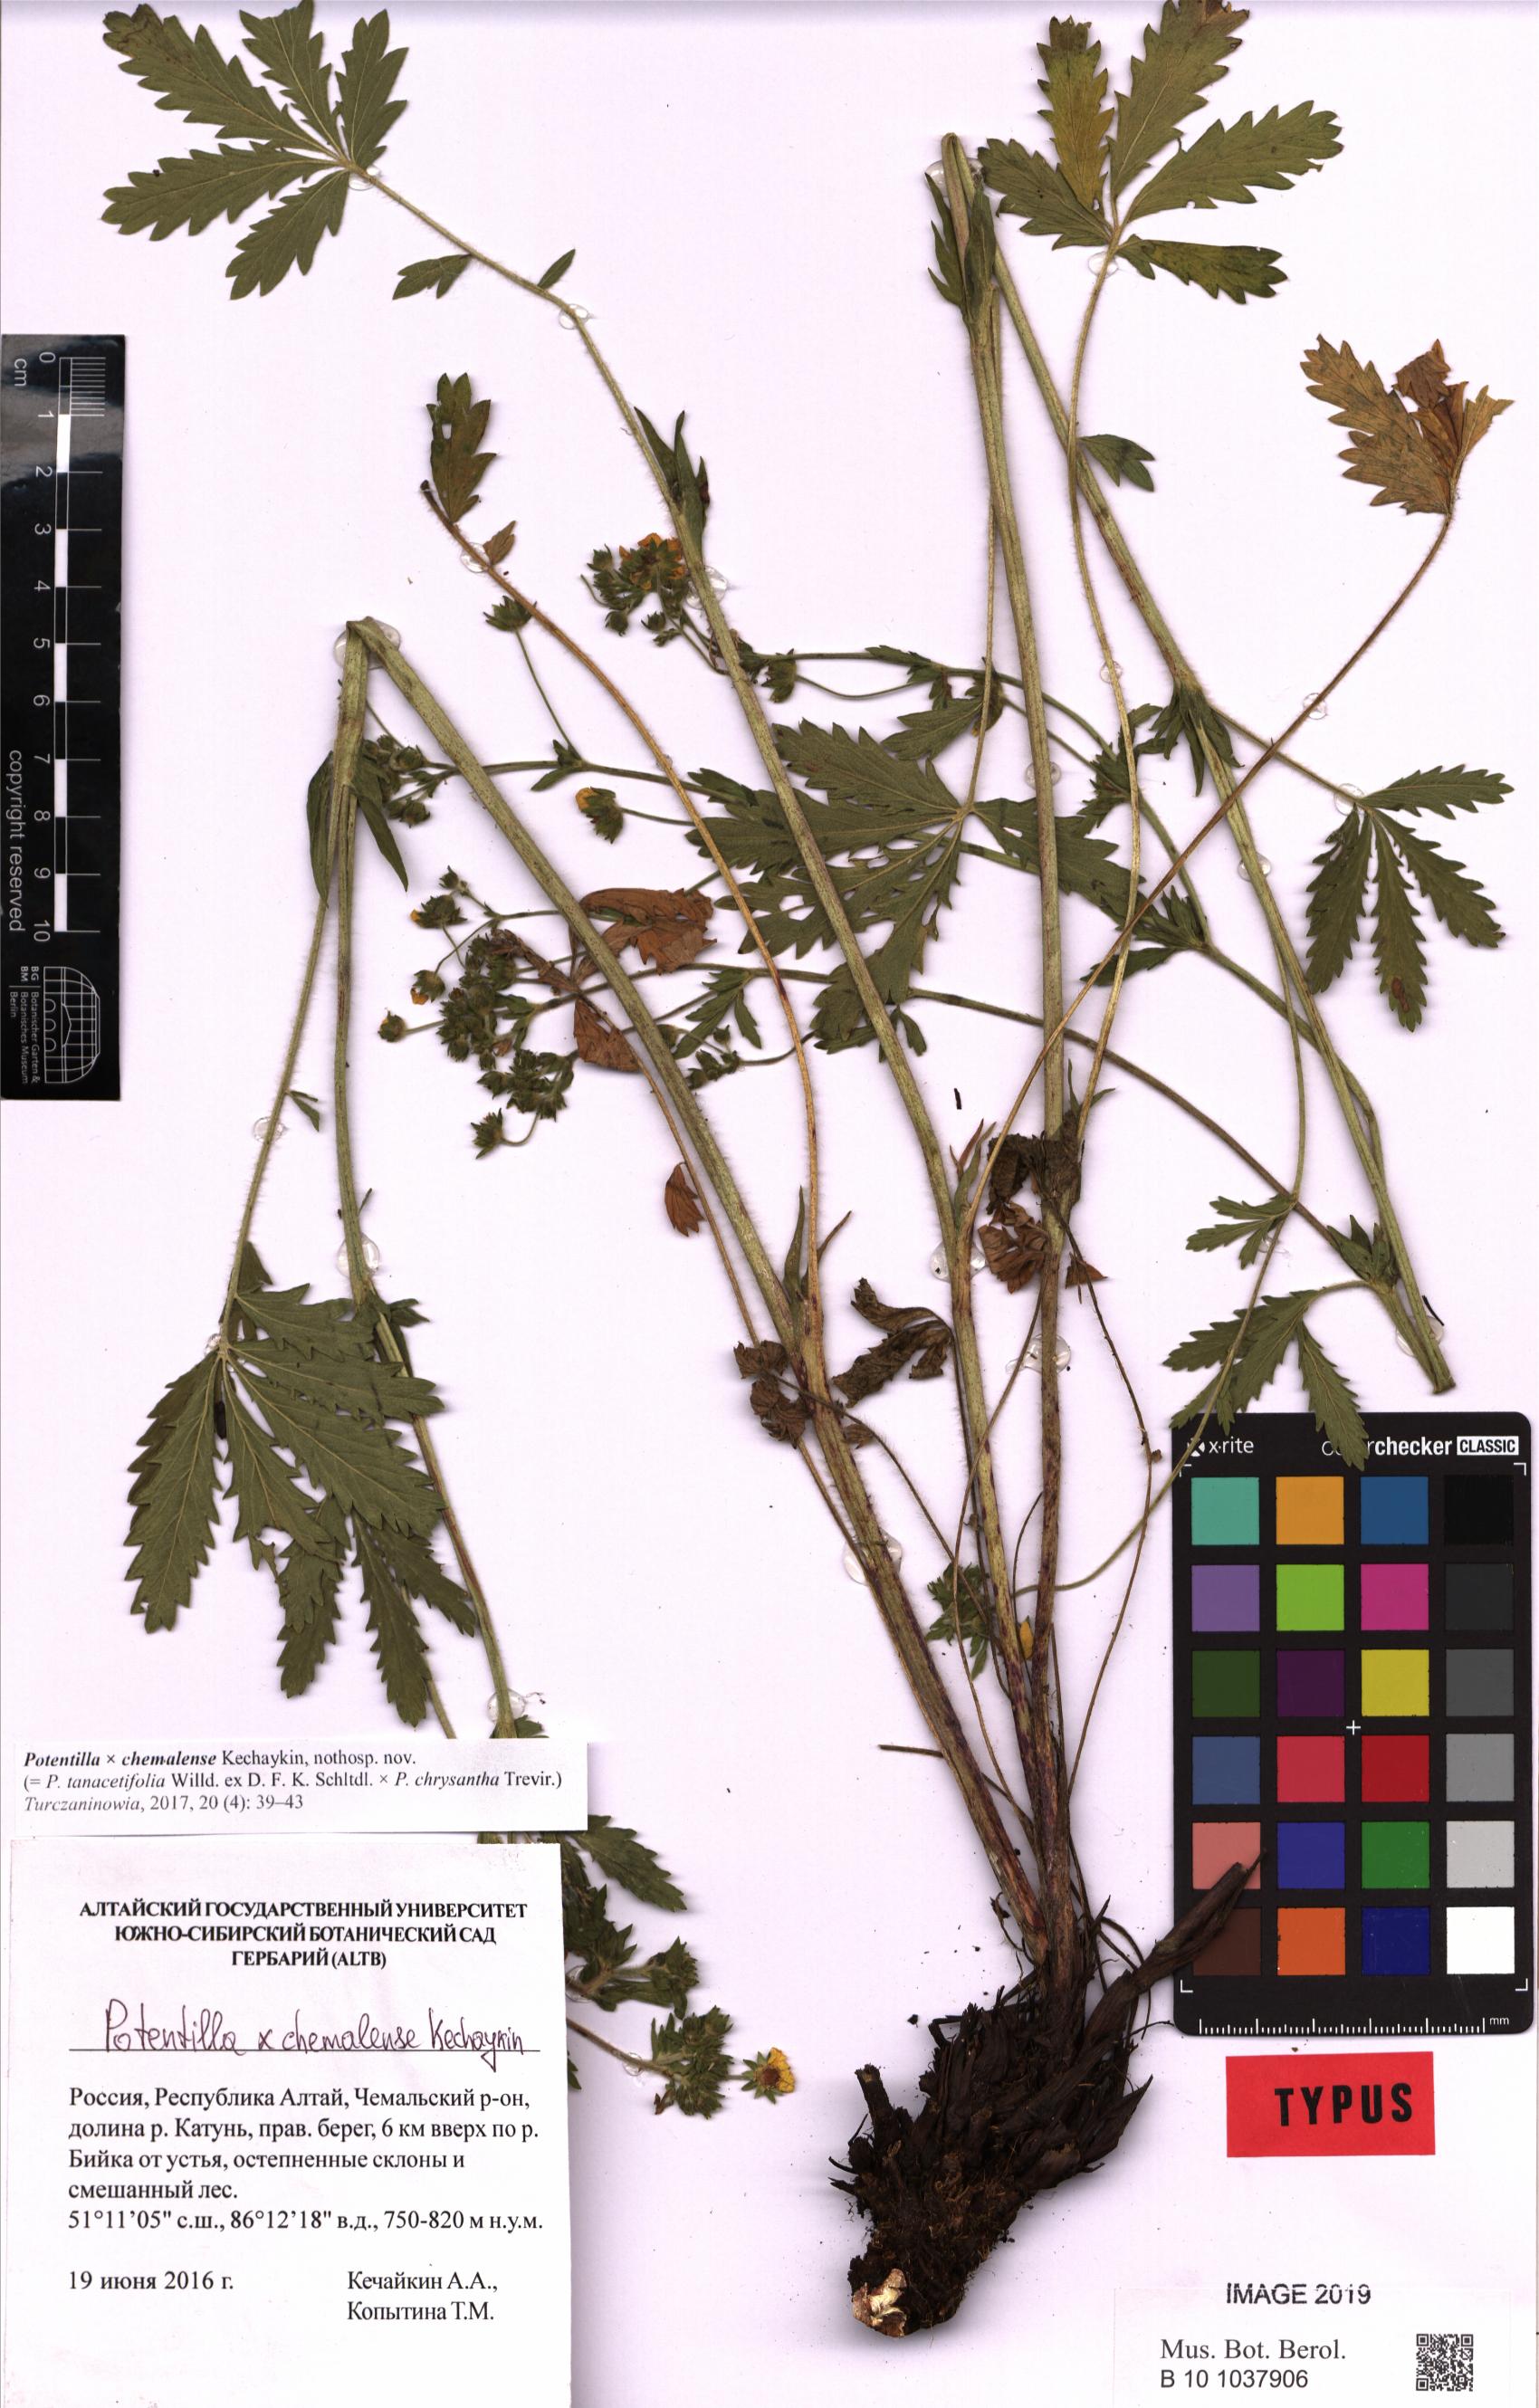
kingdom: Plantae
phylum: Tracheophyta
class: Magnoliopsida
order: Rosales
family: Rosaceae
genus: Potentilla
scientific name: Potentilla chemalensis
